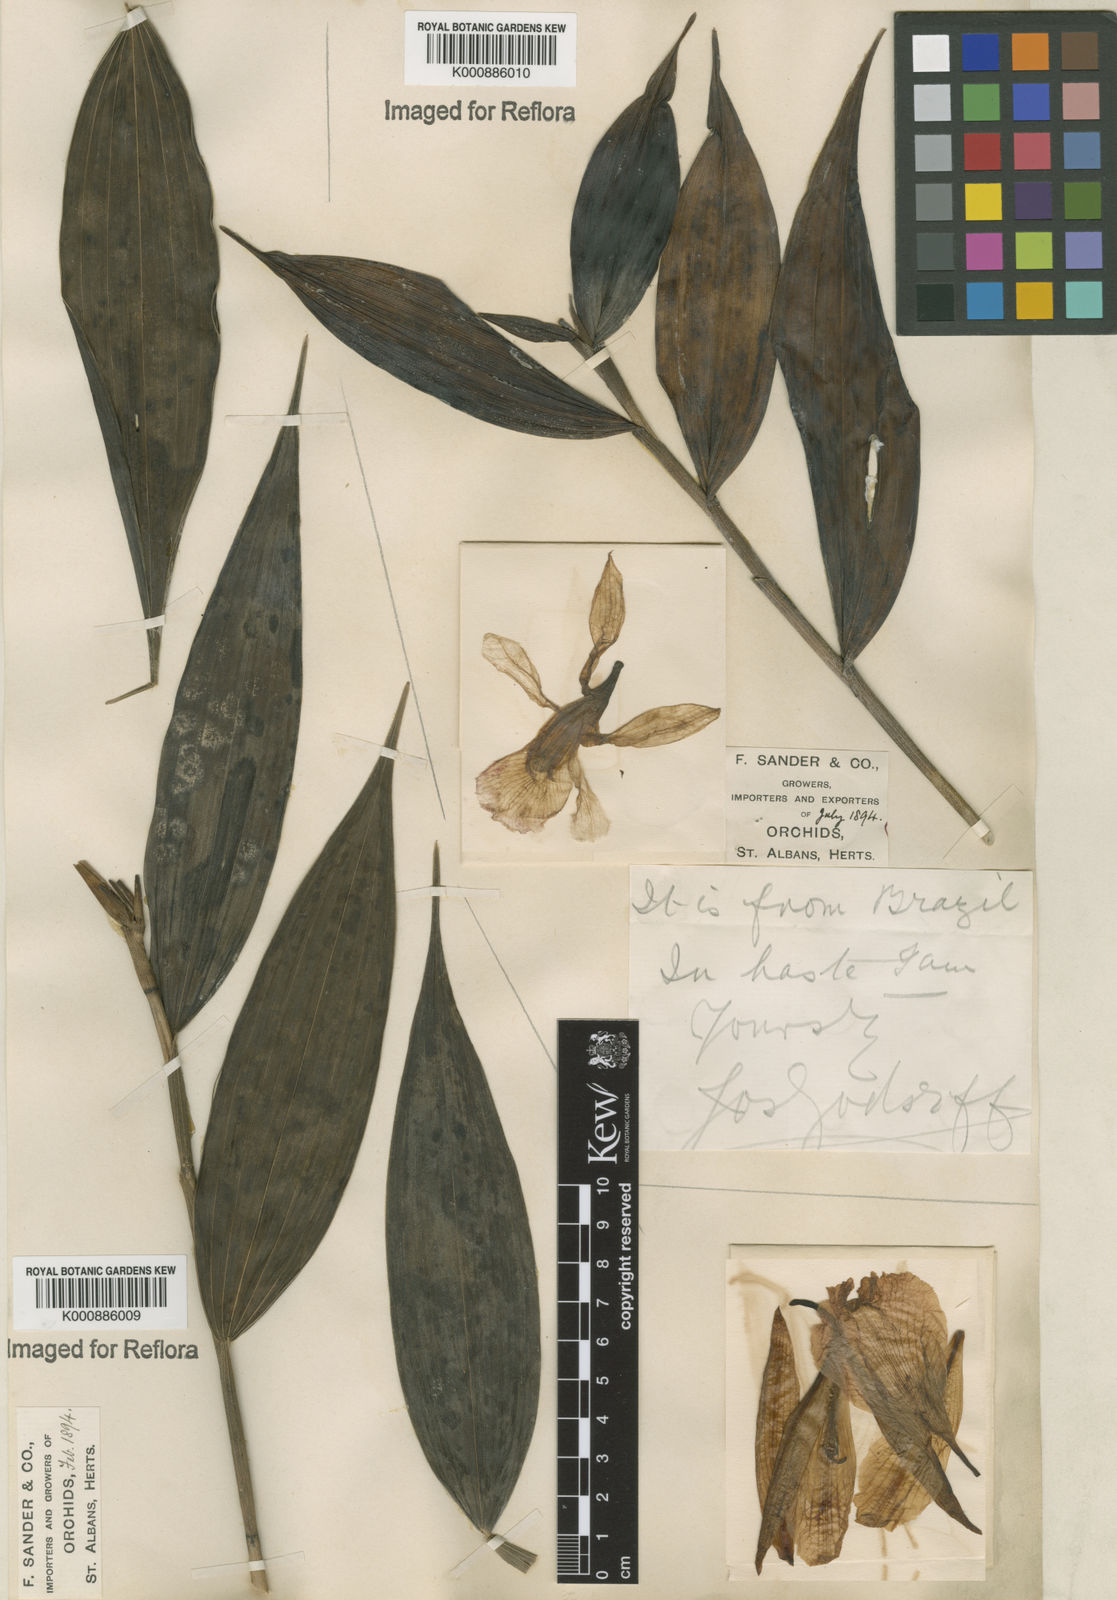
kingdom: Plantae
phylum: Tracheophyta
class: Liliopsida
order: Asparagales
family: Orchidaceae
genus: Sobralia
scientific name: Sobralia sessilis
